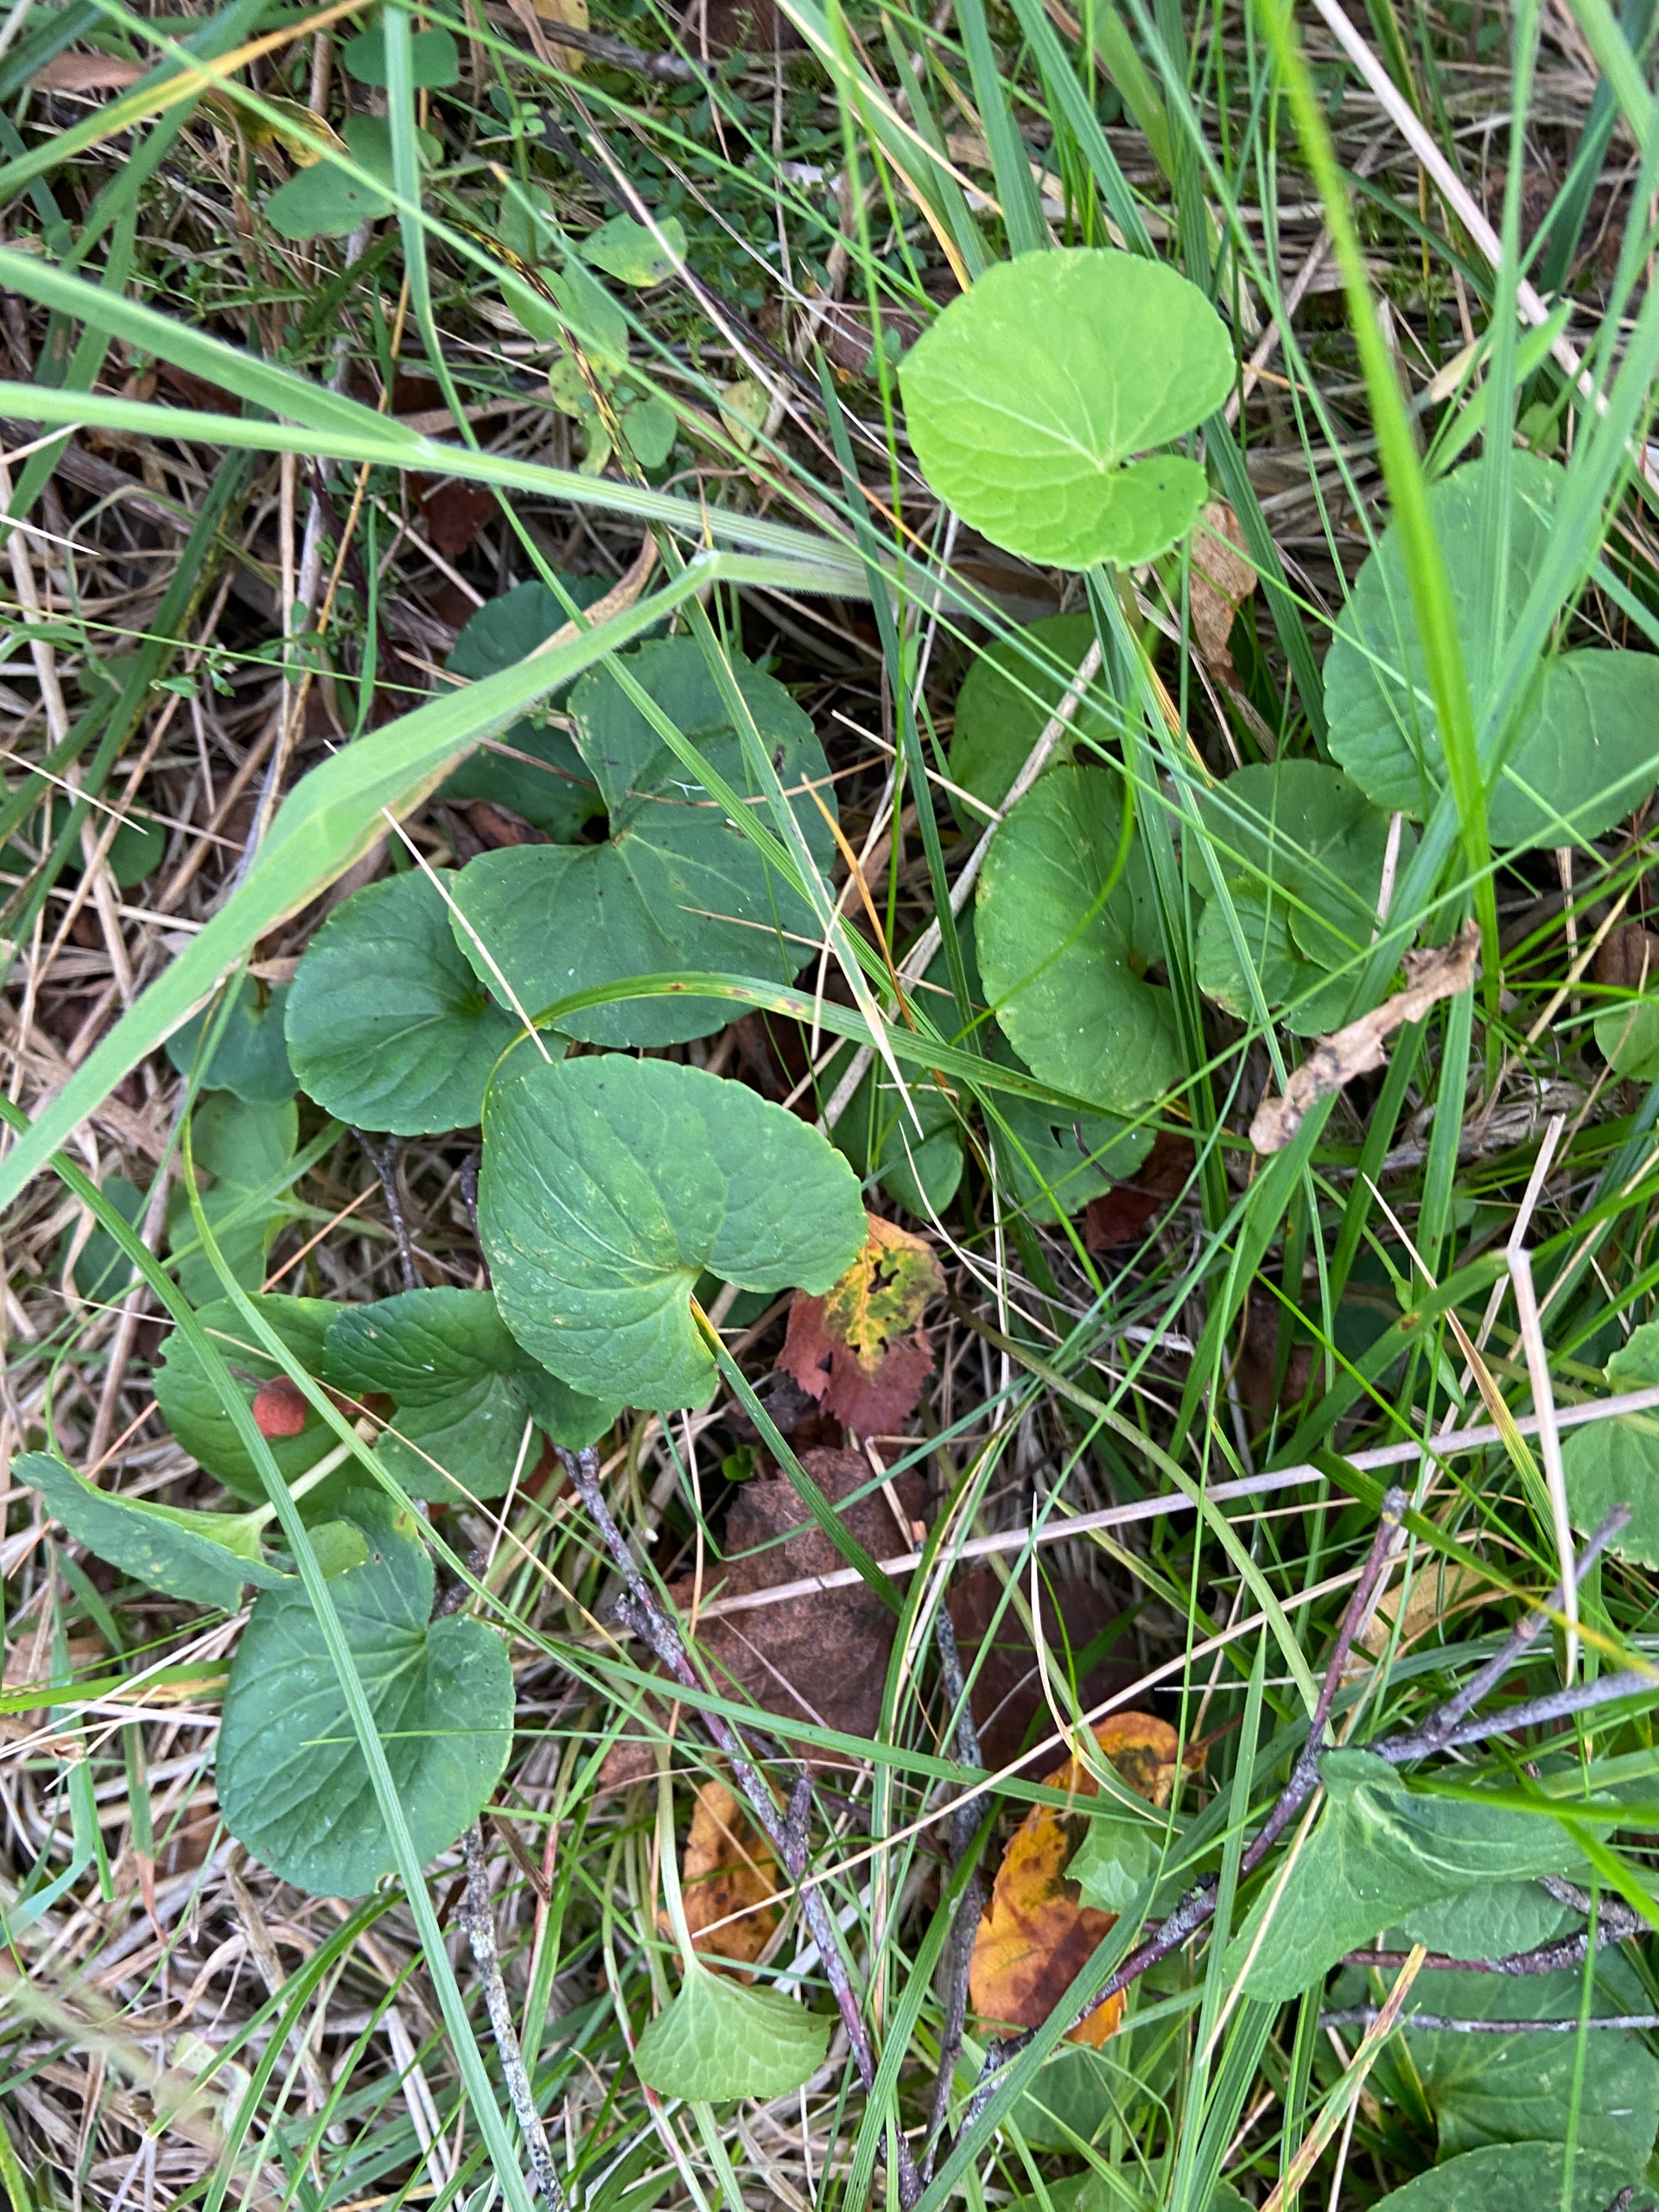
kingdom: Plantae
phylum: Tracheophyta
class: Magnoliopsida
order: Malpighiales
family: Violaceae
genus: Viola
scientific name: Viola palustris
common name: Eng-viol
